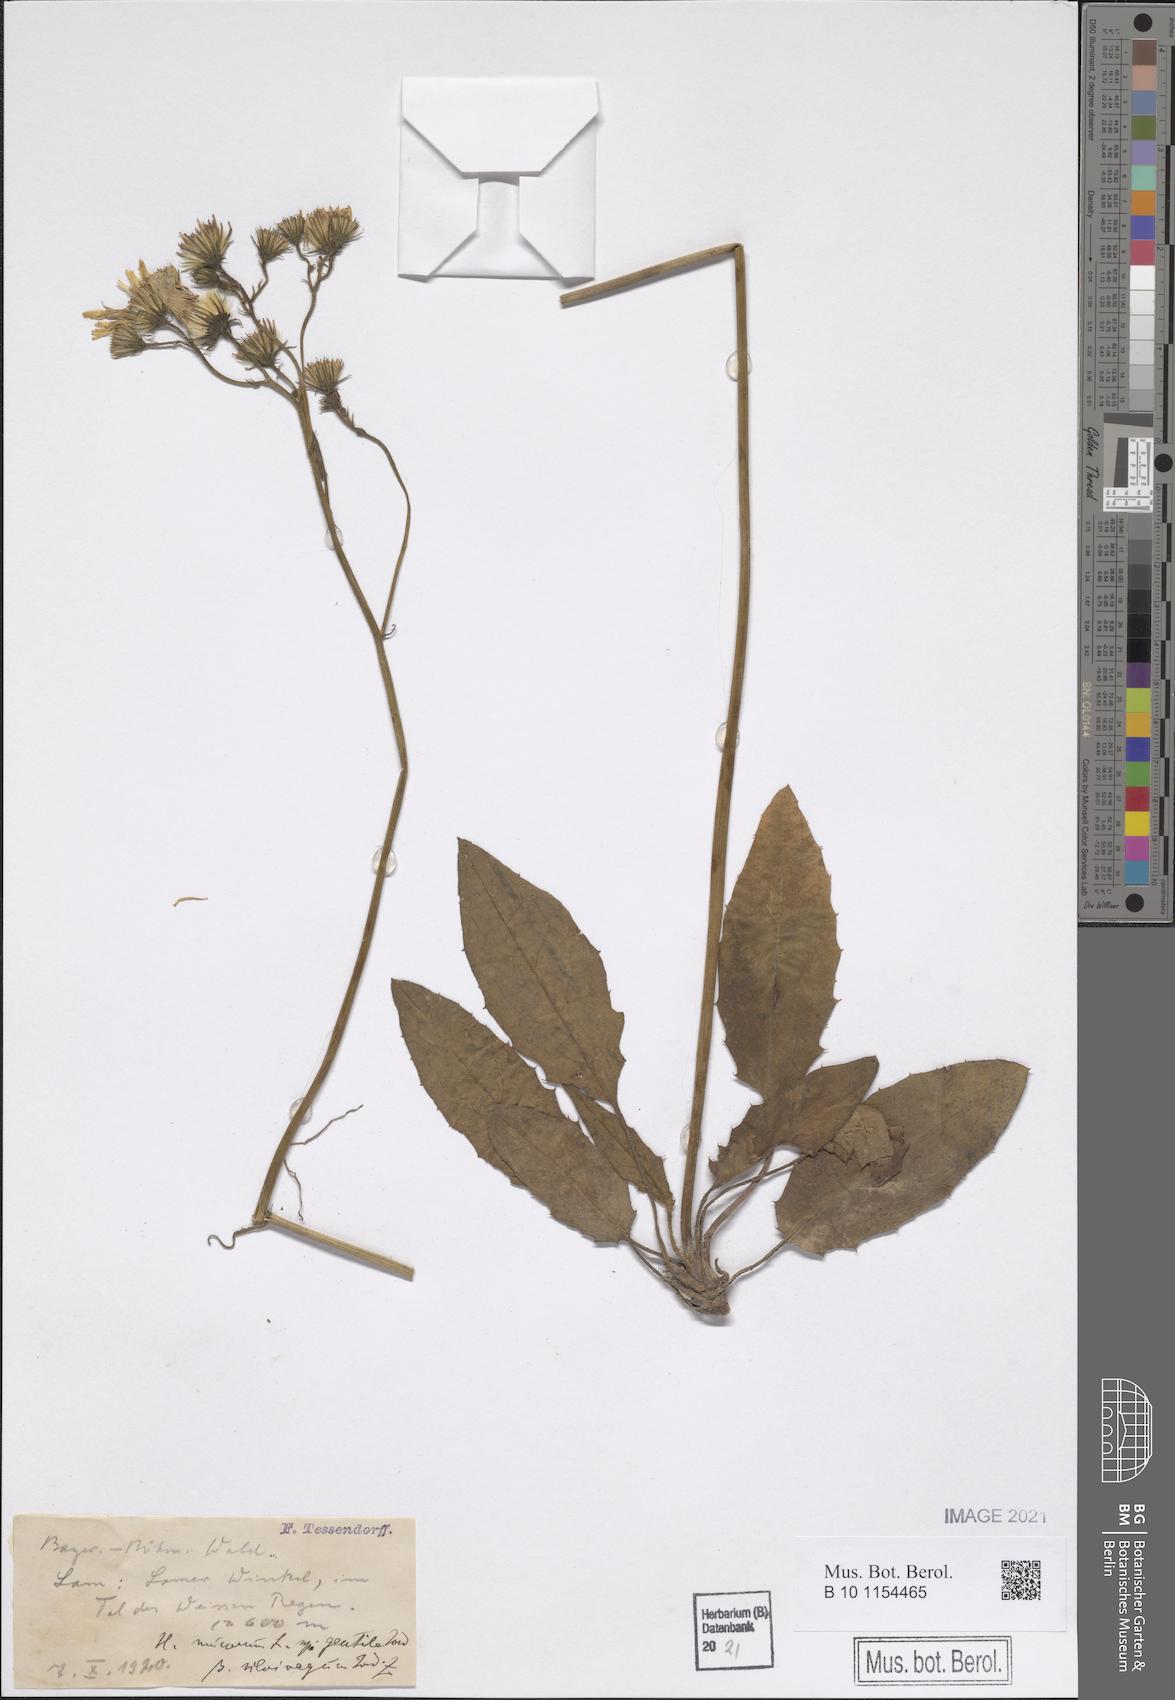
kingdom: Plantae
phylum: Tracheophyta
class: Magnoliopsida
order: Asterales
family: Asteraceae
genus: Hieracium
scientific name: Hieracium murorum
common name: Wall hawkweed
